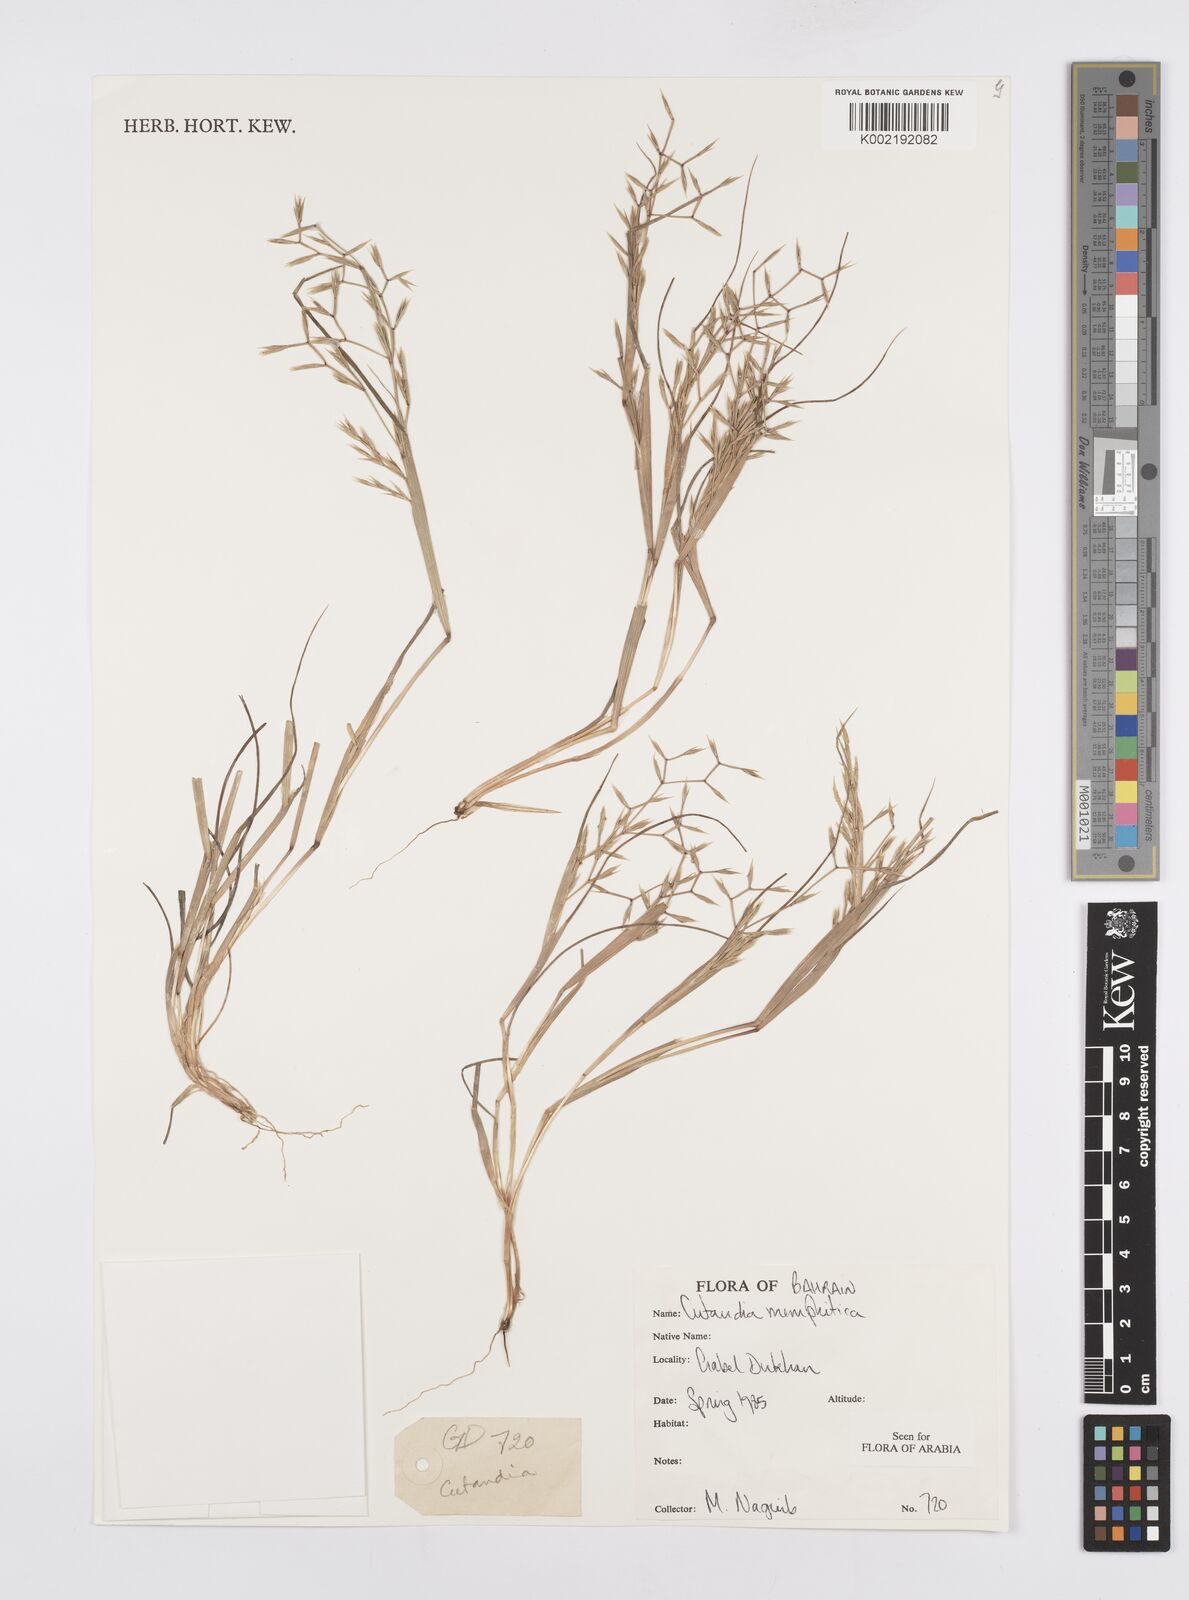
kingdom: Plantae
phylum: Tracheophyta
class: Liliopsida
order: Poales
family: Poaceae
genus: Cutandia
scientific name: Cutandia memphitica
